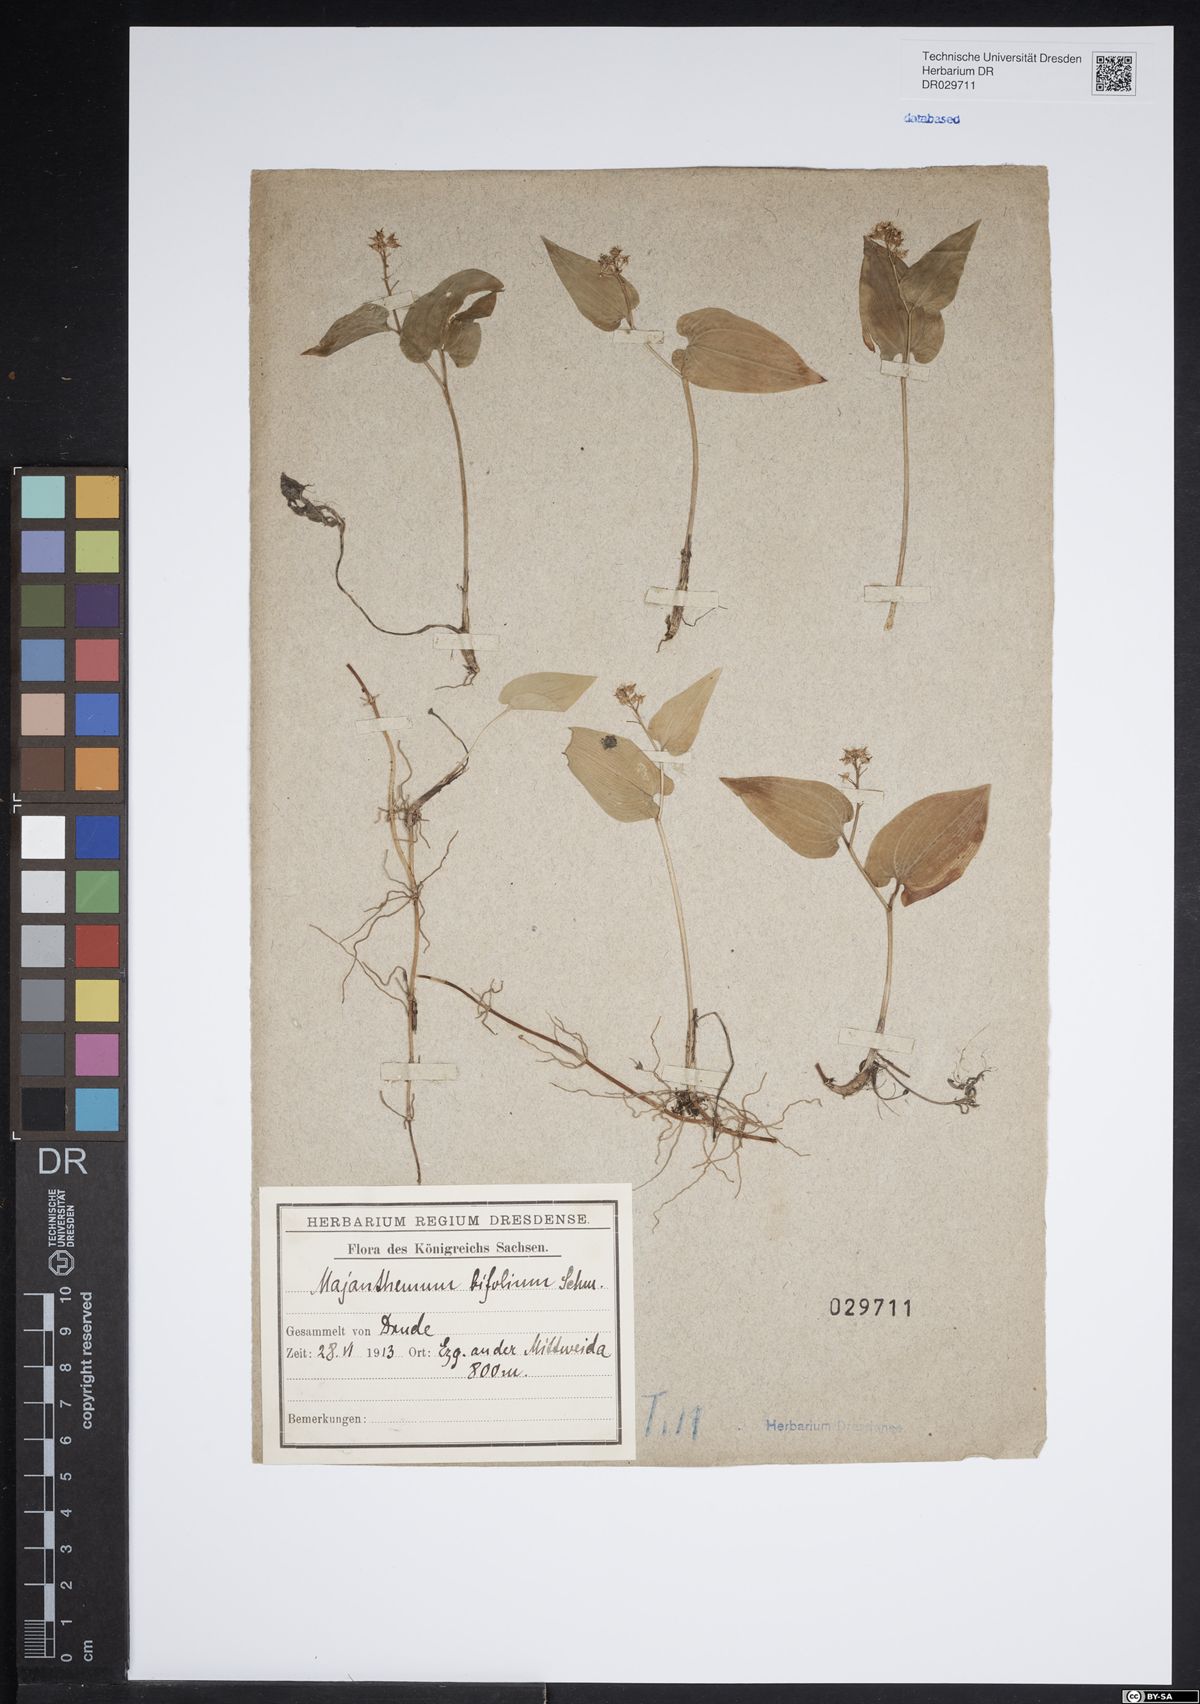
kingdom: Plantae
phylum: Tracheophyta
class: Liliopsida
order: Asparagales
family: Asparagaceae
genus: Maianthemum
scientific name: Maianthemum bifolium
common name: May lily
